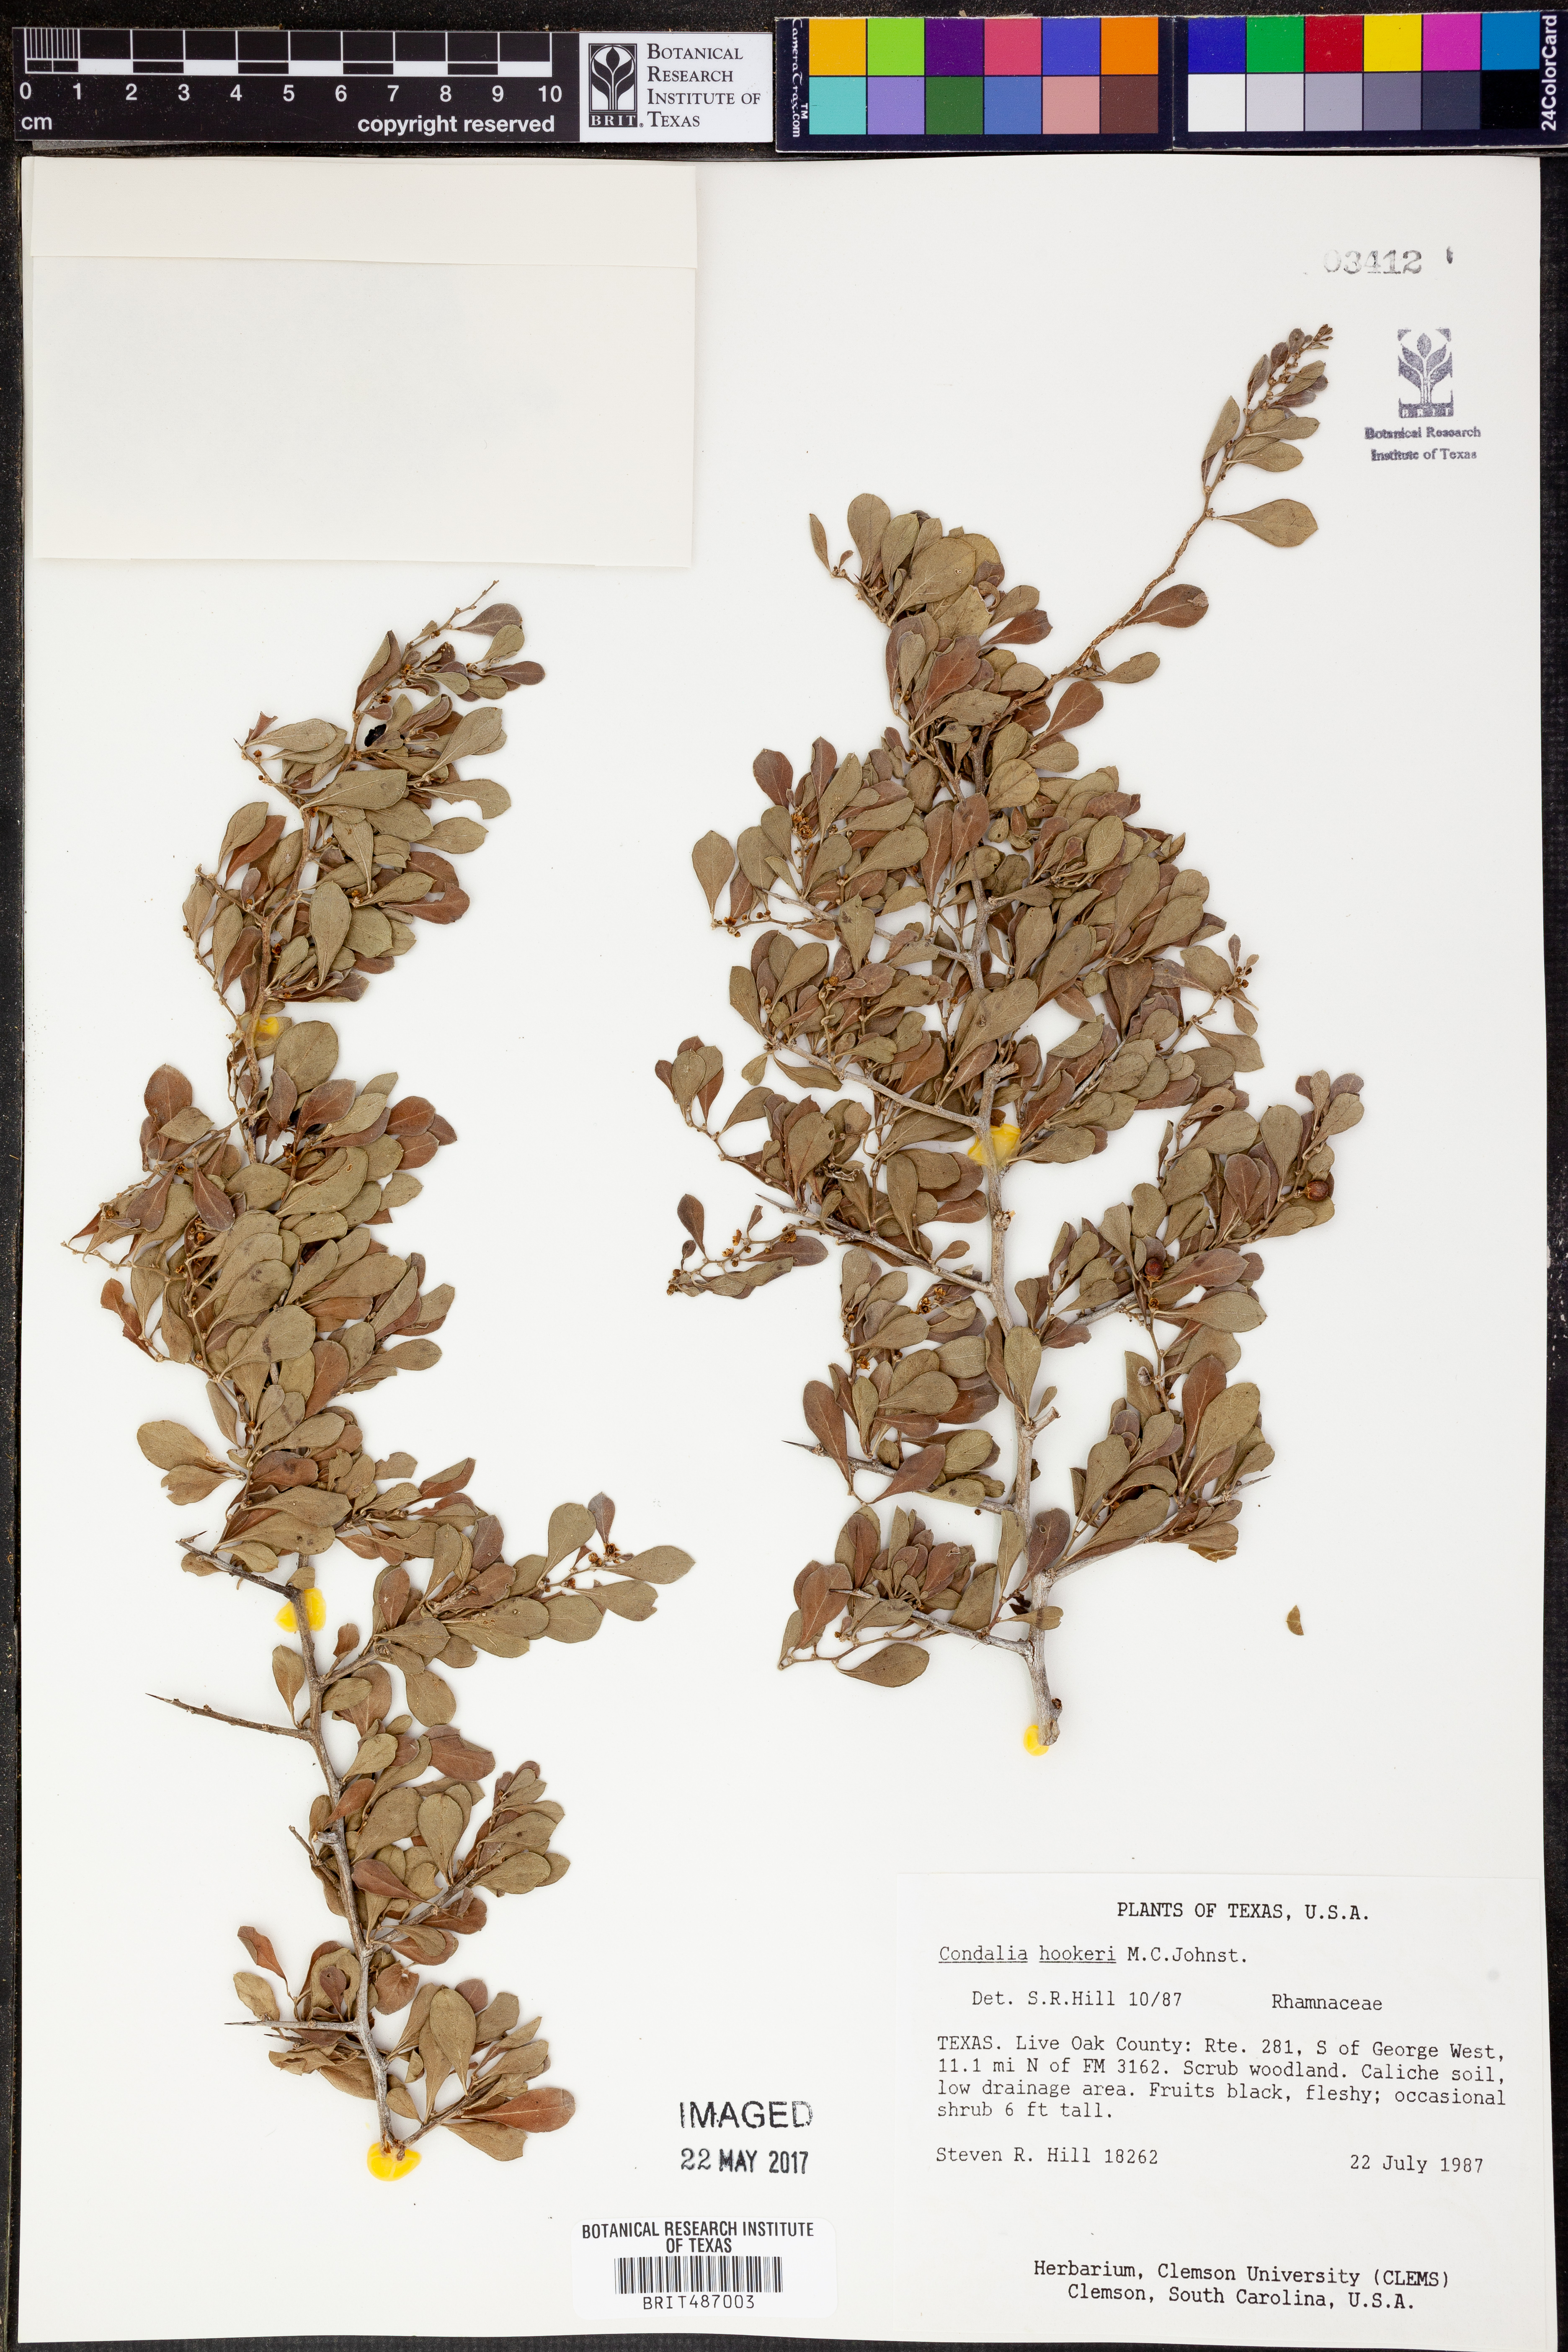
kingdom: Plantae
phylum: Tracheophyta
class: Magnoliopsida
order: Rosales
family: Rhamnaceae
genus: Condalia
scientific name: Condalia hookeri
